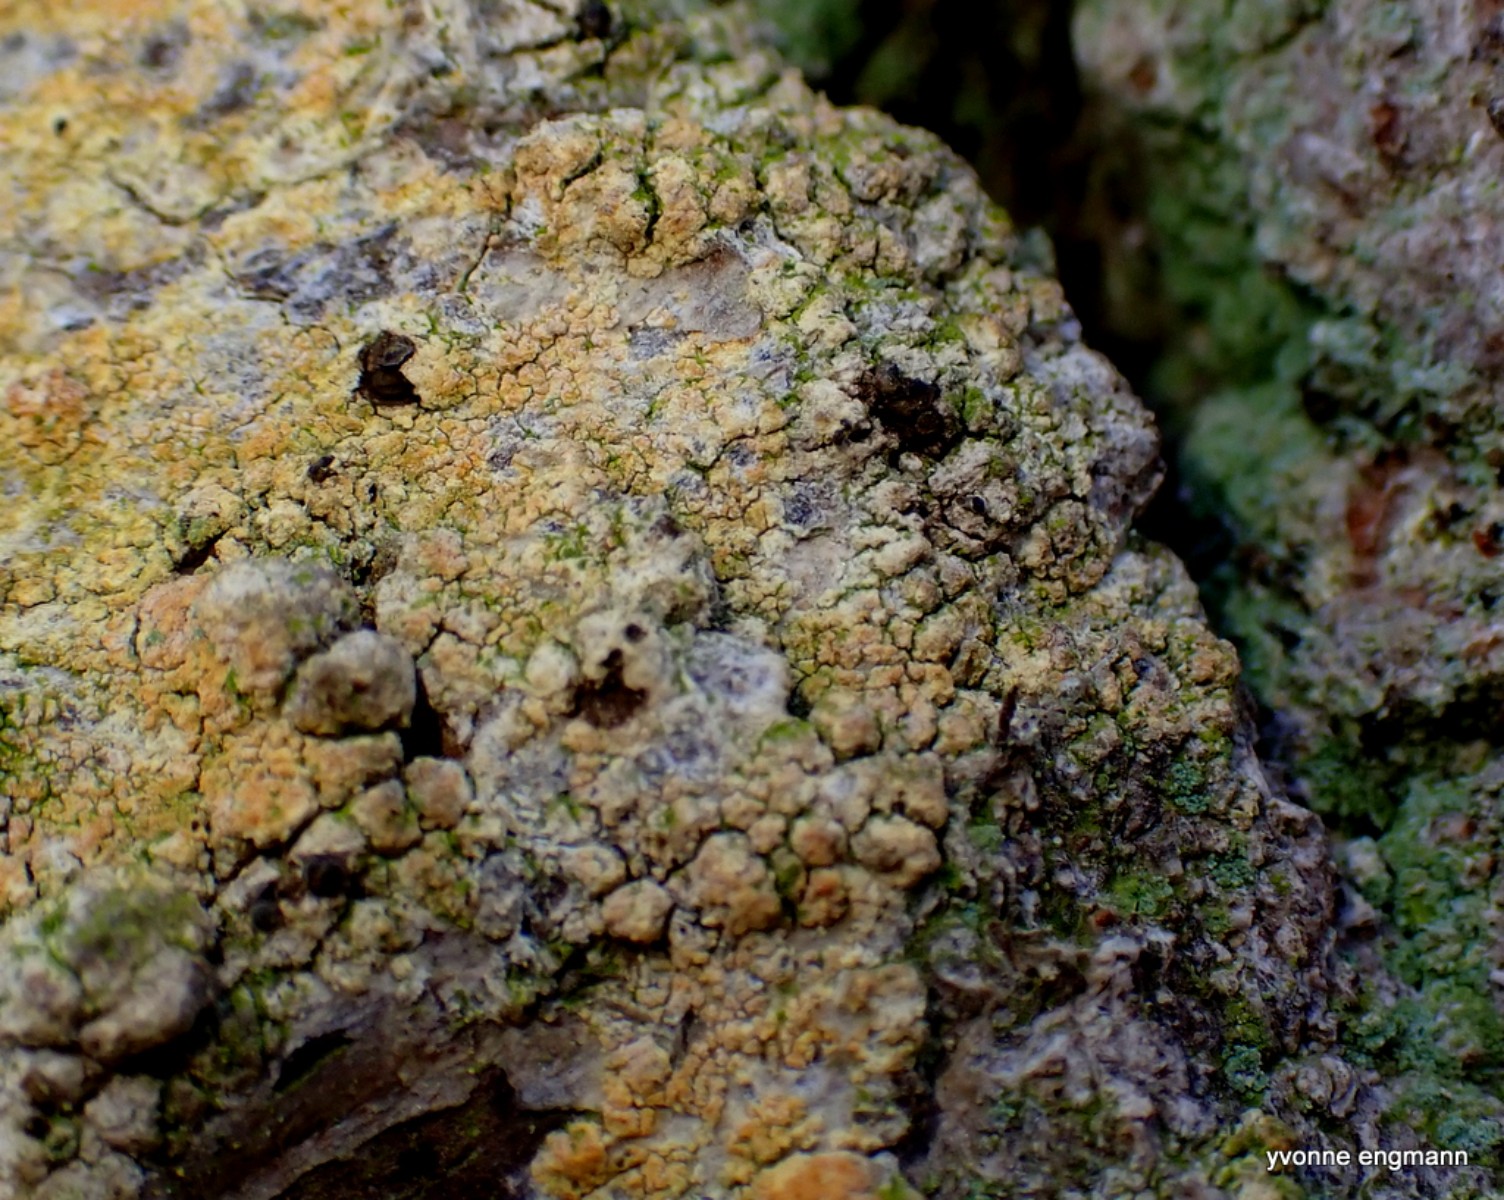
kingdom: Fungi
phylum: Ascomycota
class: Coniocybomycetes
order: Coniocybales
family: Coniocybaceae
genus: Chaenotheca
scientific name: Chaenotheca ferruginea
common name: rustbrun knappenålslav
